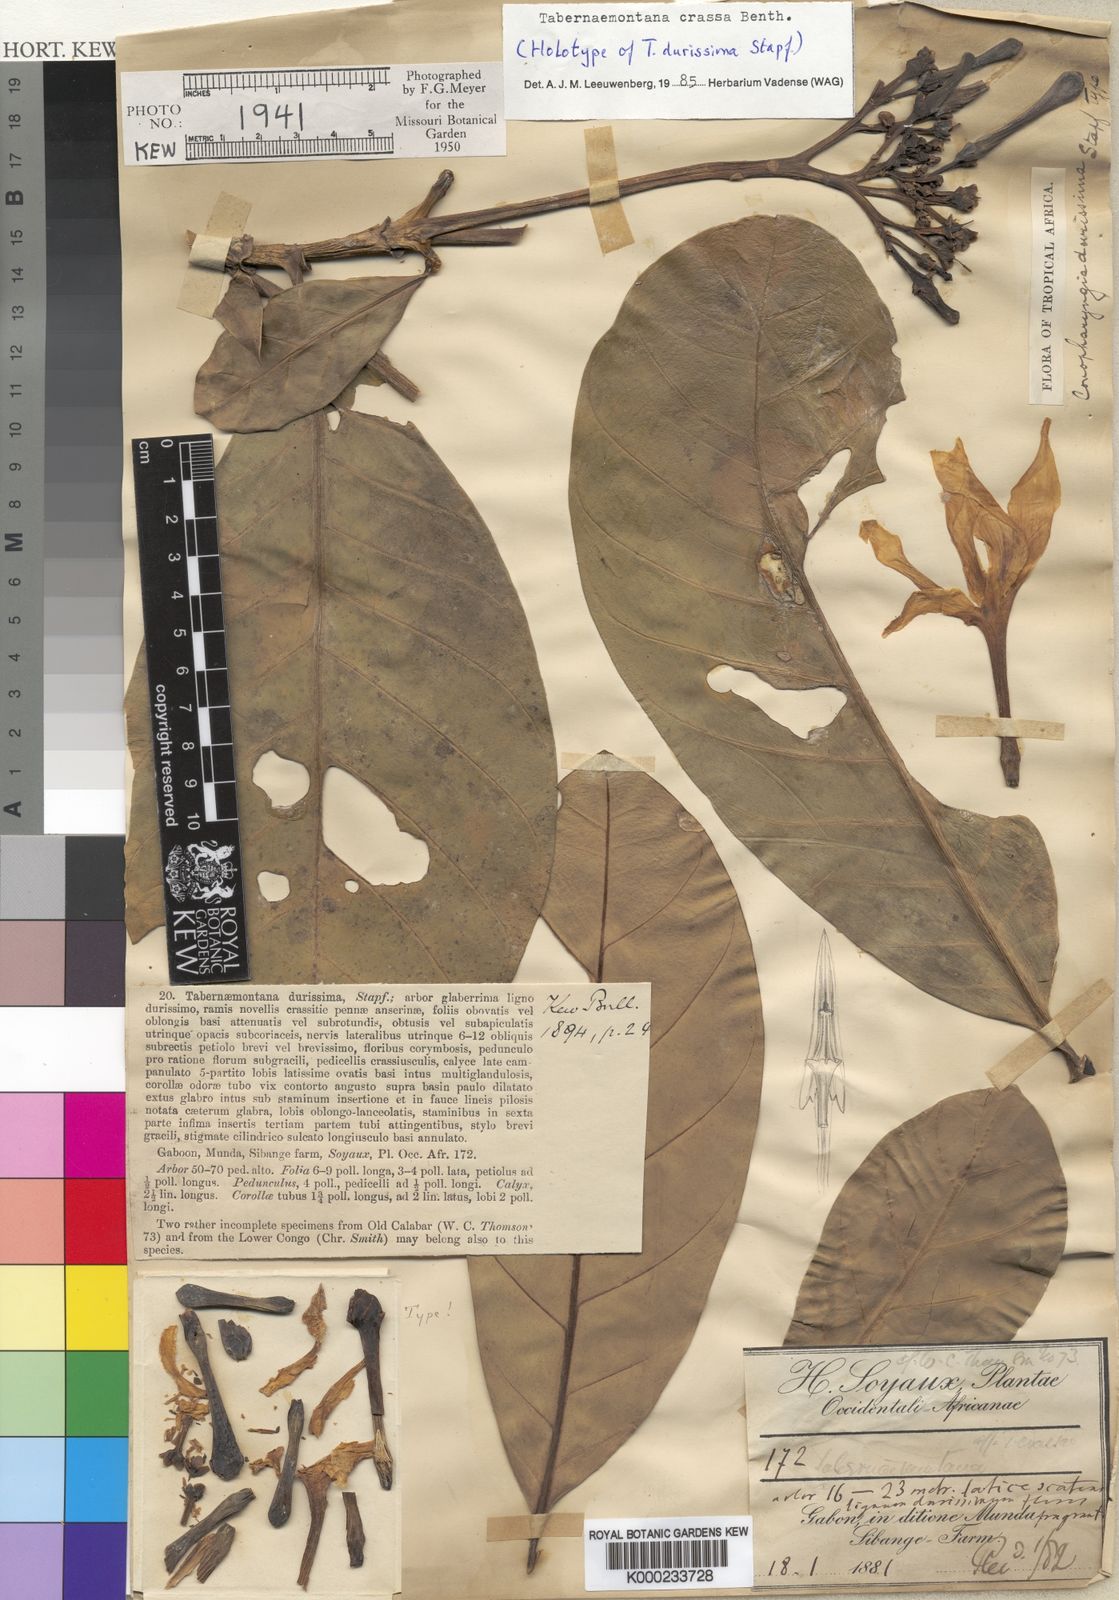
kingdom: Plantae
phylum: Tracheophyta
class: Magnoliopsida
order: Gentianales
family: Apocynaceae
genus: Tabernaemontana
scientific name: Tabernaemontana crassa
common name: Adam's-apple-flower
